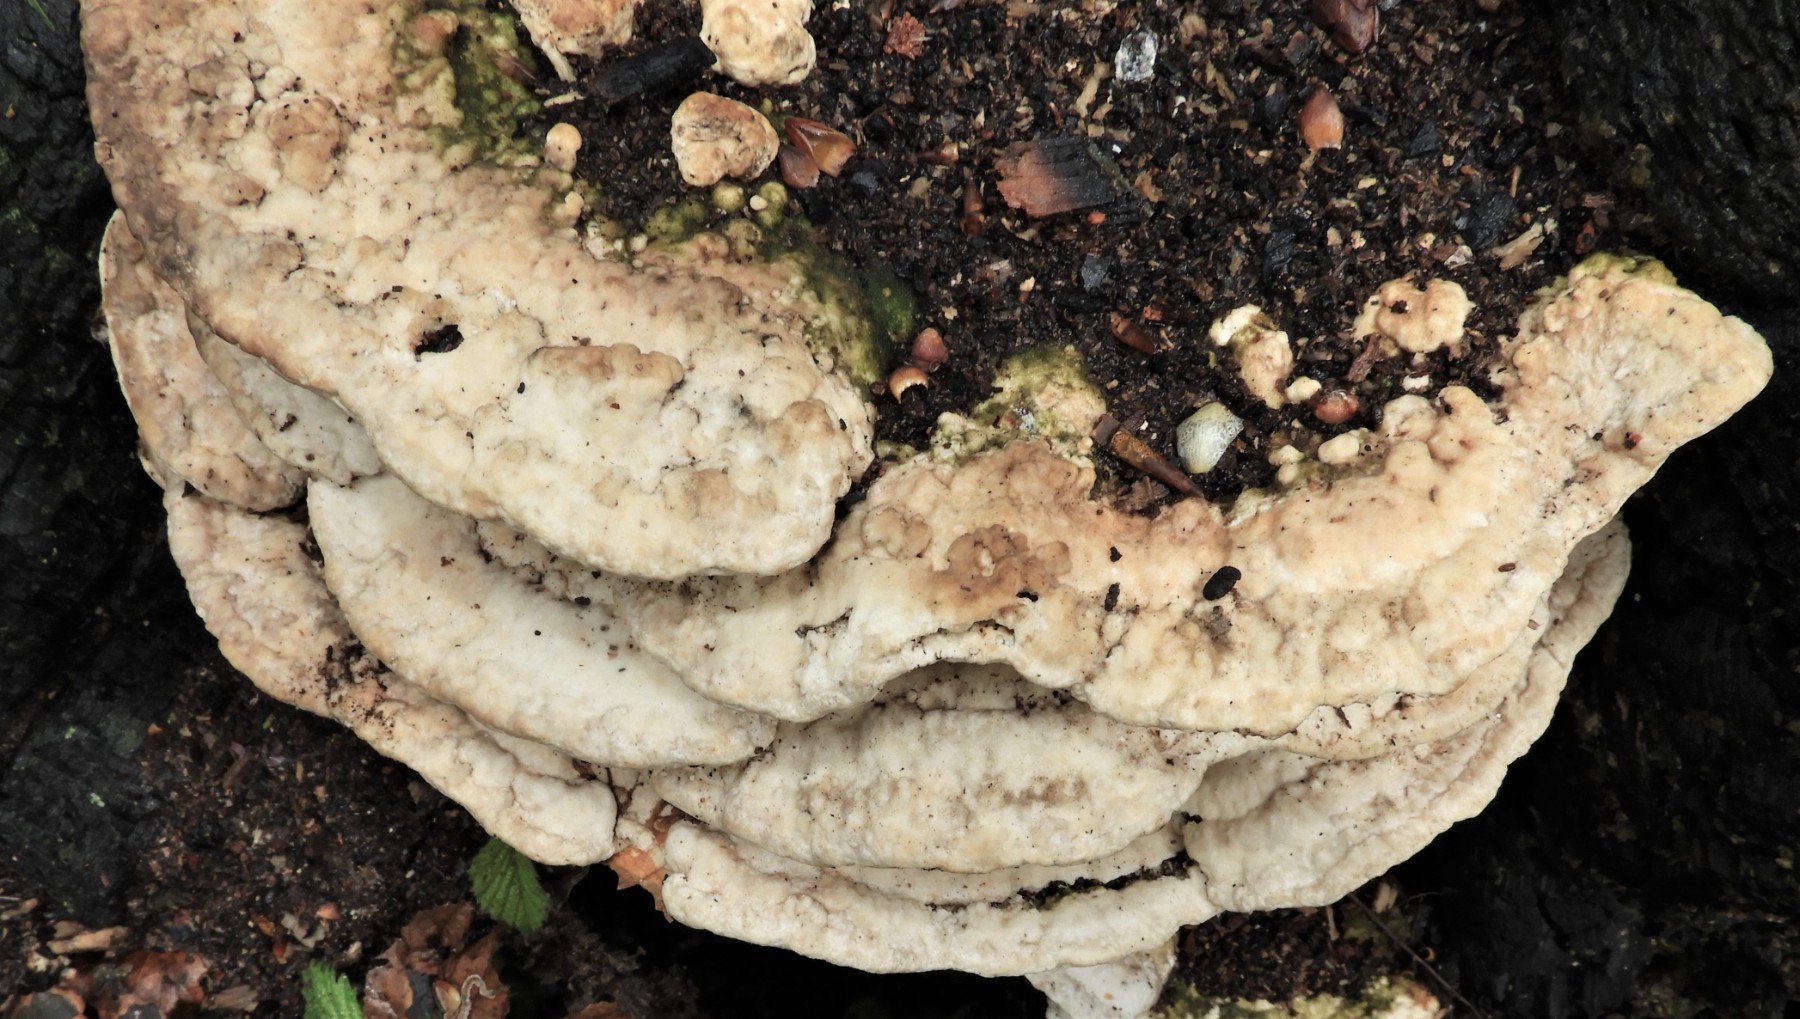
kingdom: Fungi
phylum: Basidiomycota
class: Agaricomycetes
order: Polyporales
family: Polyporaceae
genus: Trametes
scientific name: Trametes gibbosa
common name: puklet læderporesvamp
